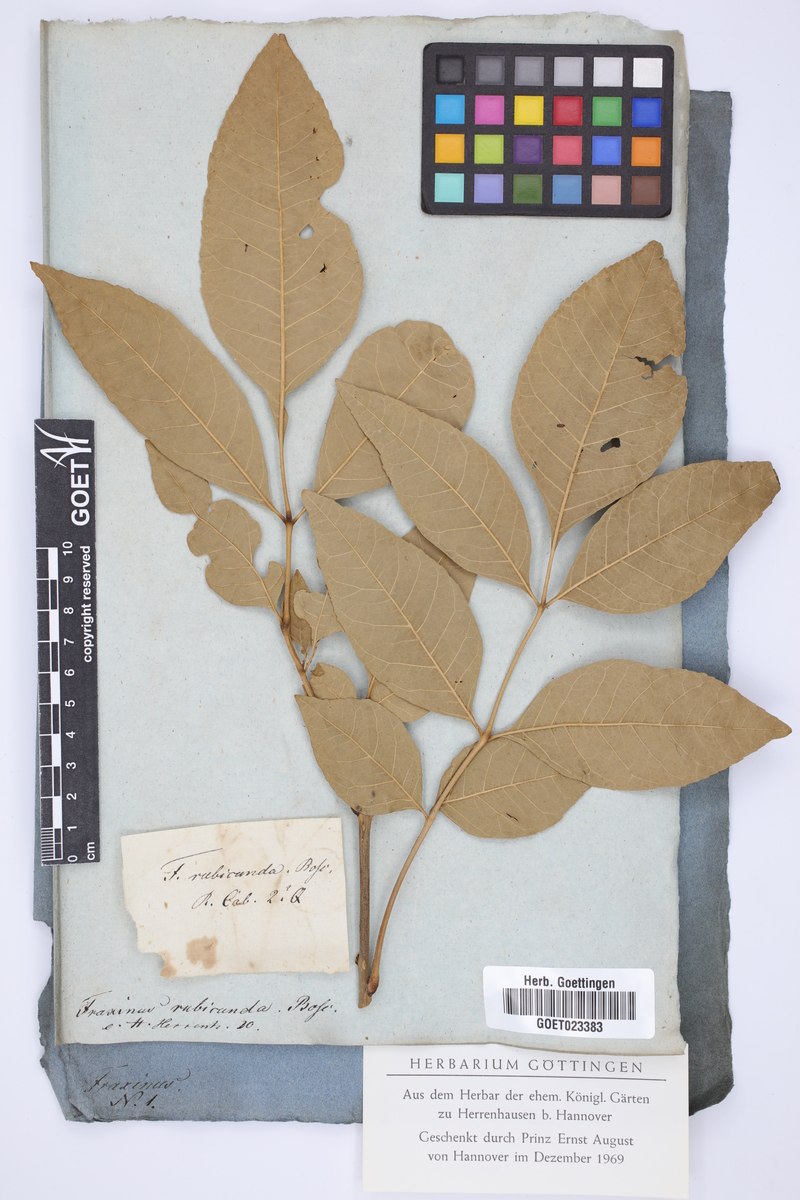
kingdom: Plantae
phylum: Tracheophyta
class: Magnoliopsida
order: Lamiales
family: Oleaceae
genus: Fraxinus
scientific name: Fraxinus pennsylvanica
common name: Green ash
